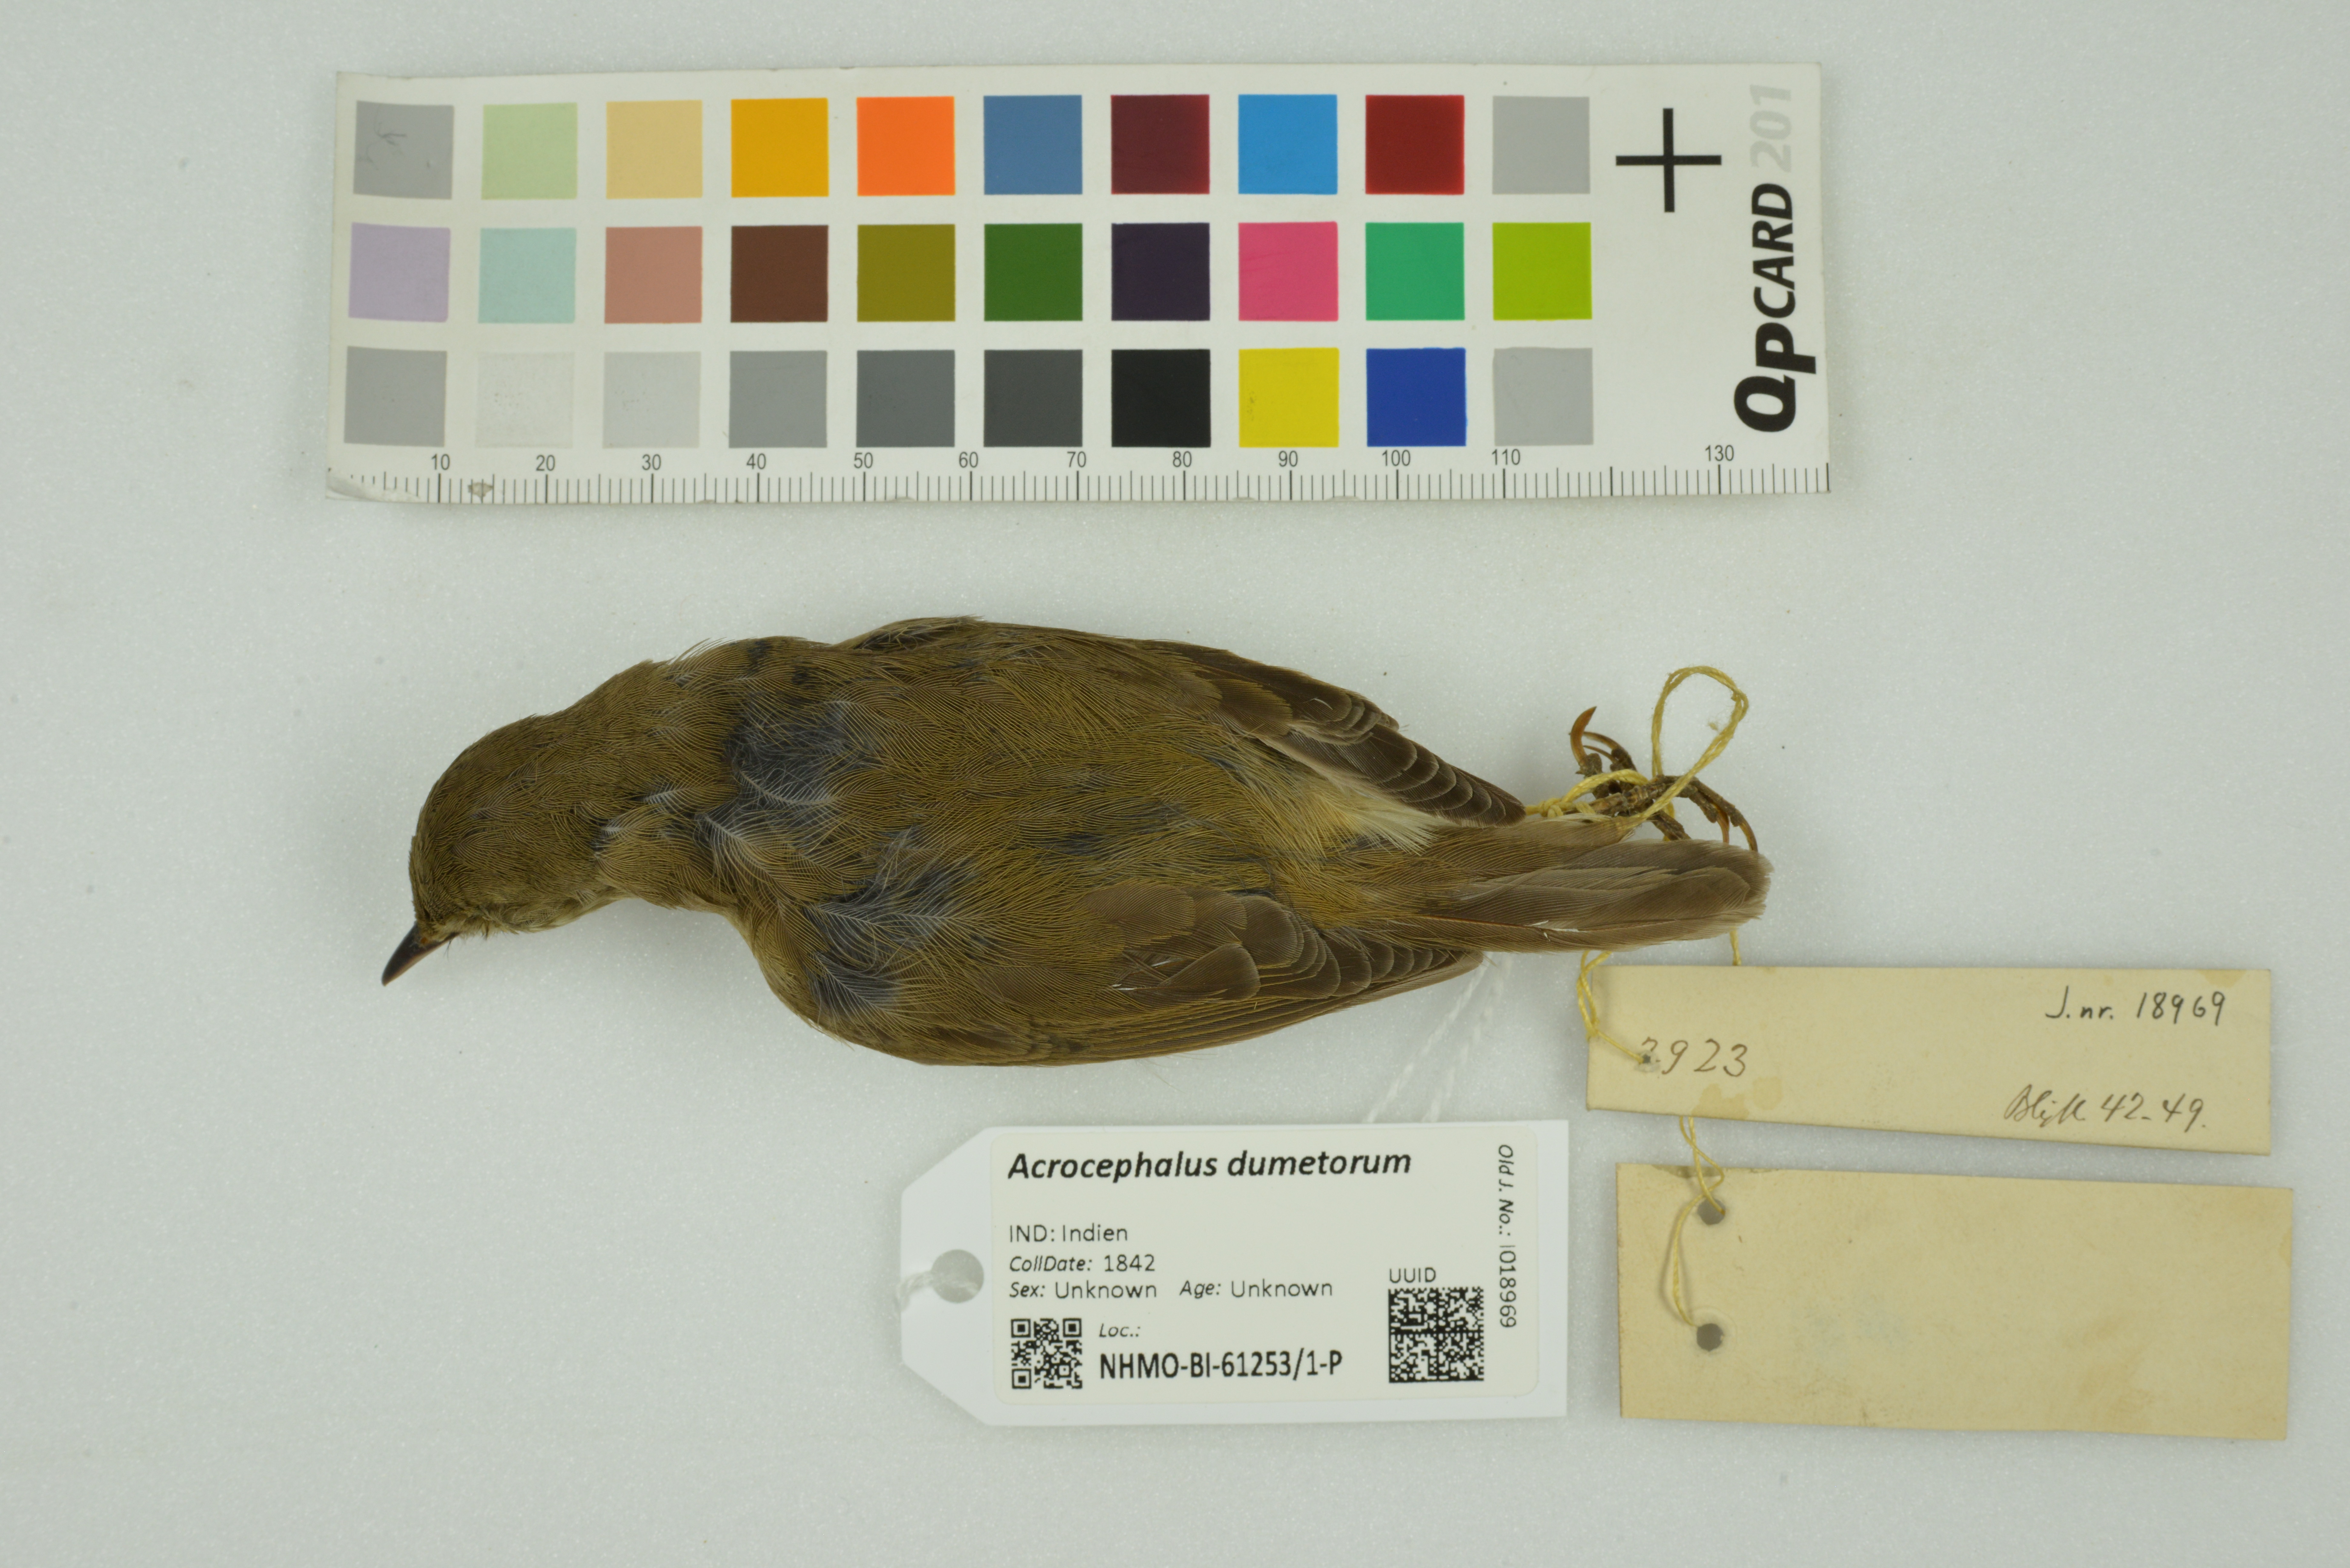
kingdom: Animalia
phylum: Chordata
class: Aves
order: Passeriformes
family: Acrocephalidae
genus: Acrocephalus
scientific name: Acrocephalus dumetorum
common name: Blyth's reed warbler
